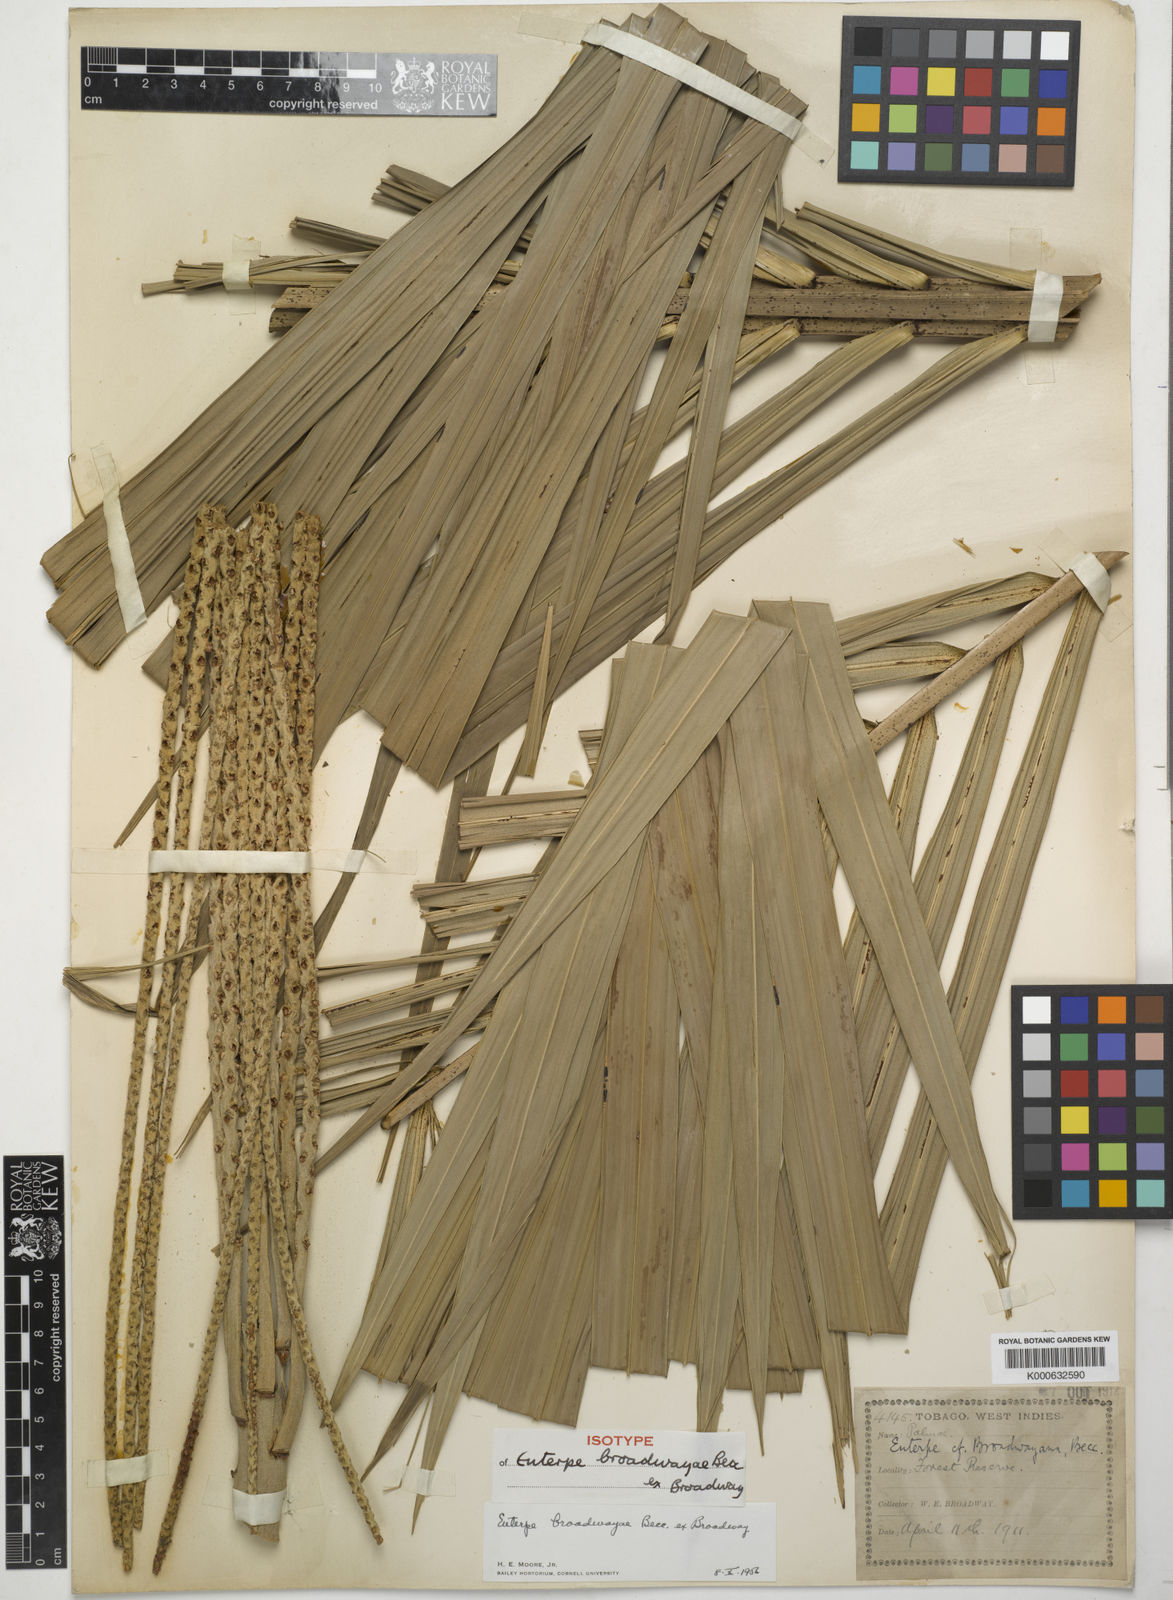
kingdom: Plantae
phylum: Tracheophyta
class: Liliopsida
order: Arecales
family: Arecaceae
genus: Euterpe
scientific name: Euterpe broadwayi
